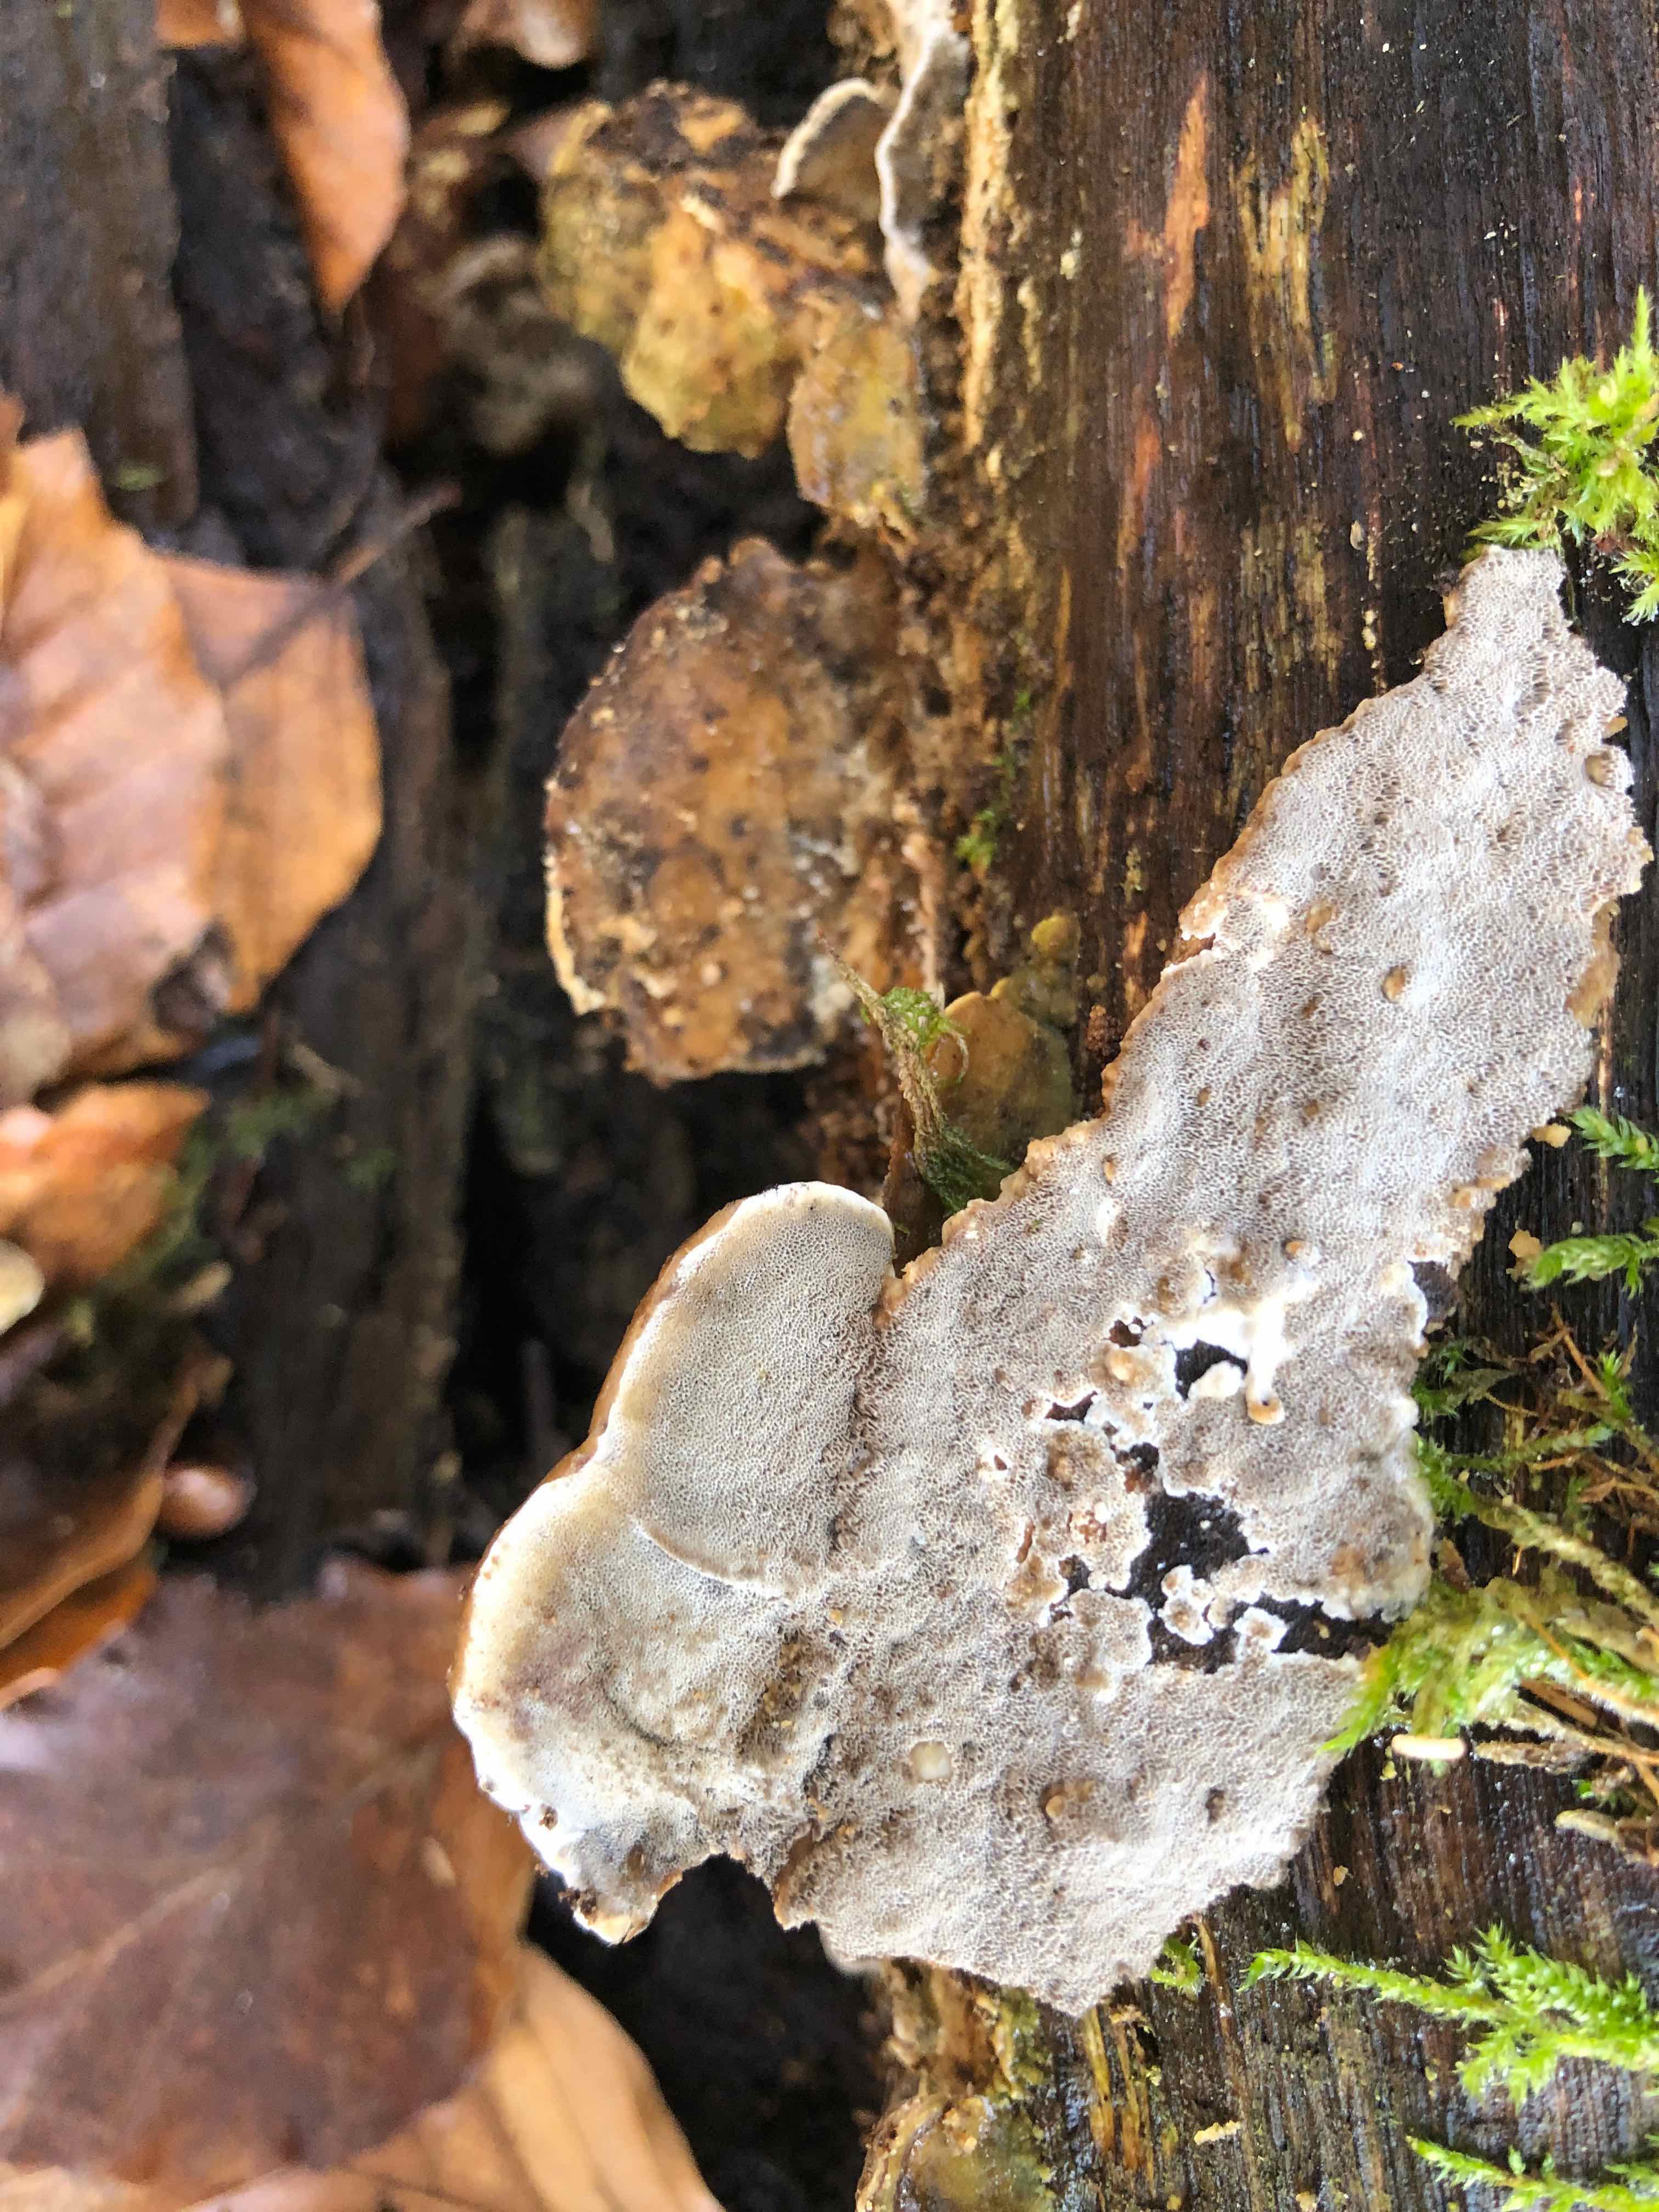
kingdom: Fungi
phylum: Basidiomycota
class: Agaricomycetes
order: Polyporales
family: Phanerochaetaceae
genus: Bjerkandera
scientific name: Bjerkandera adusta
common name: sveden sodporesvamp
